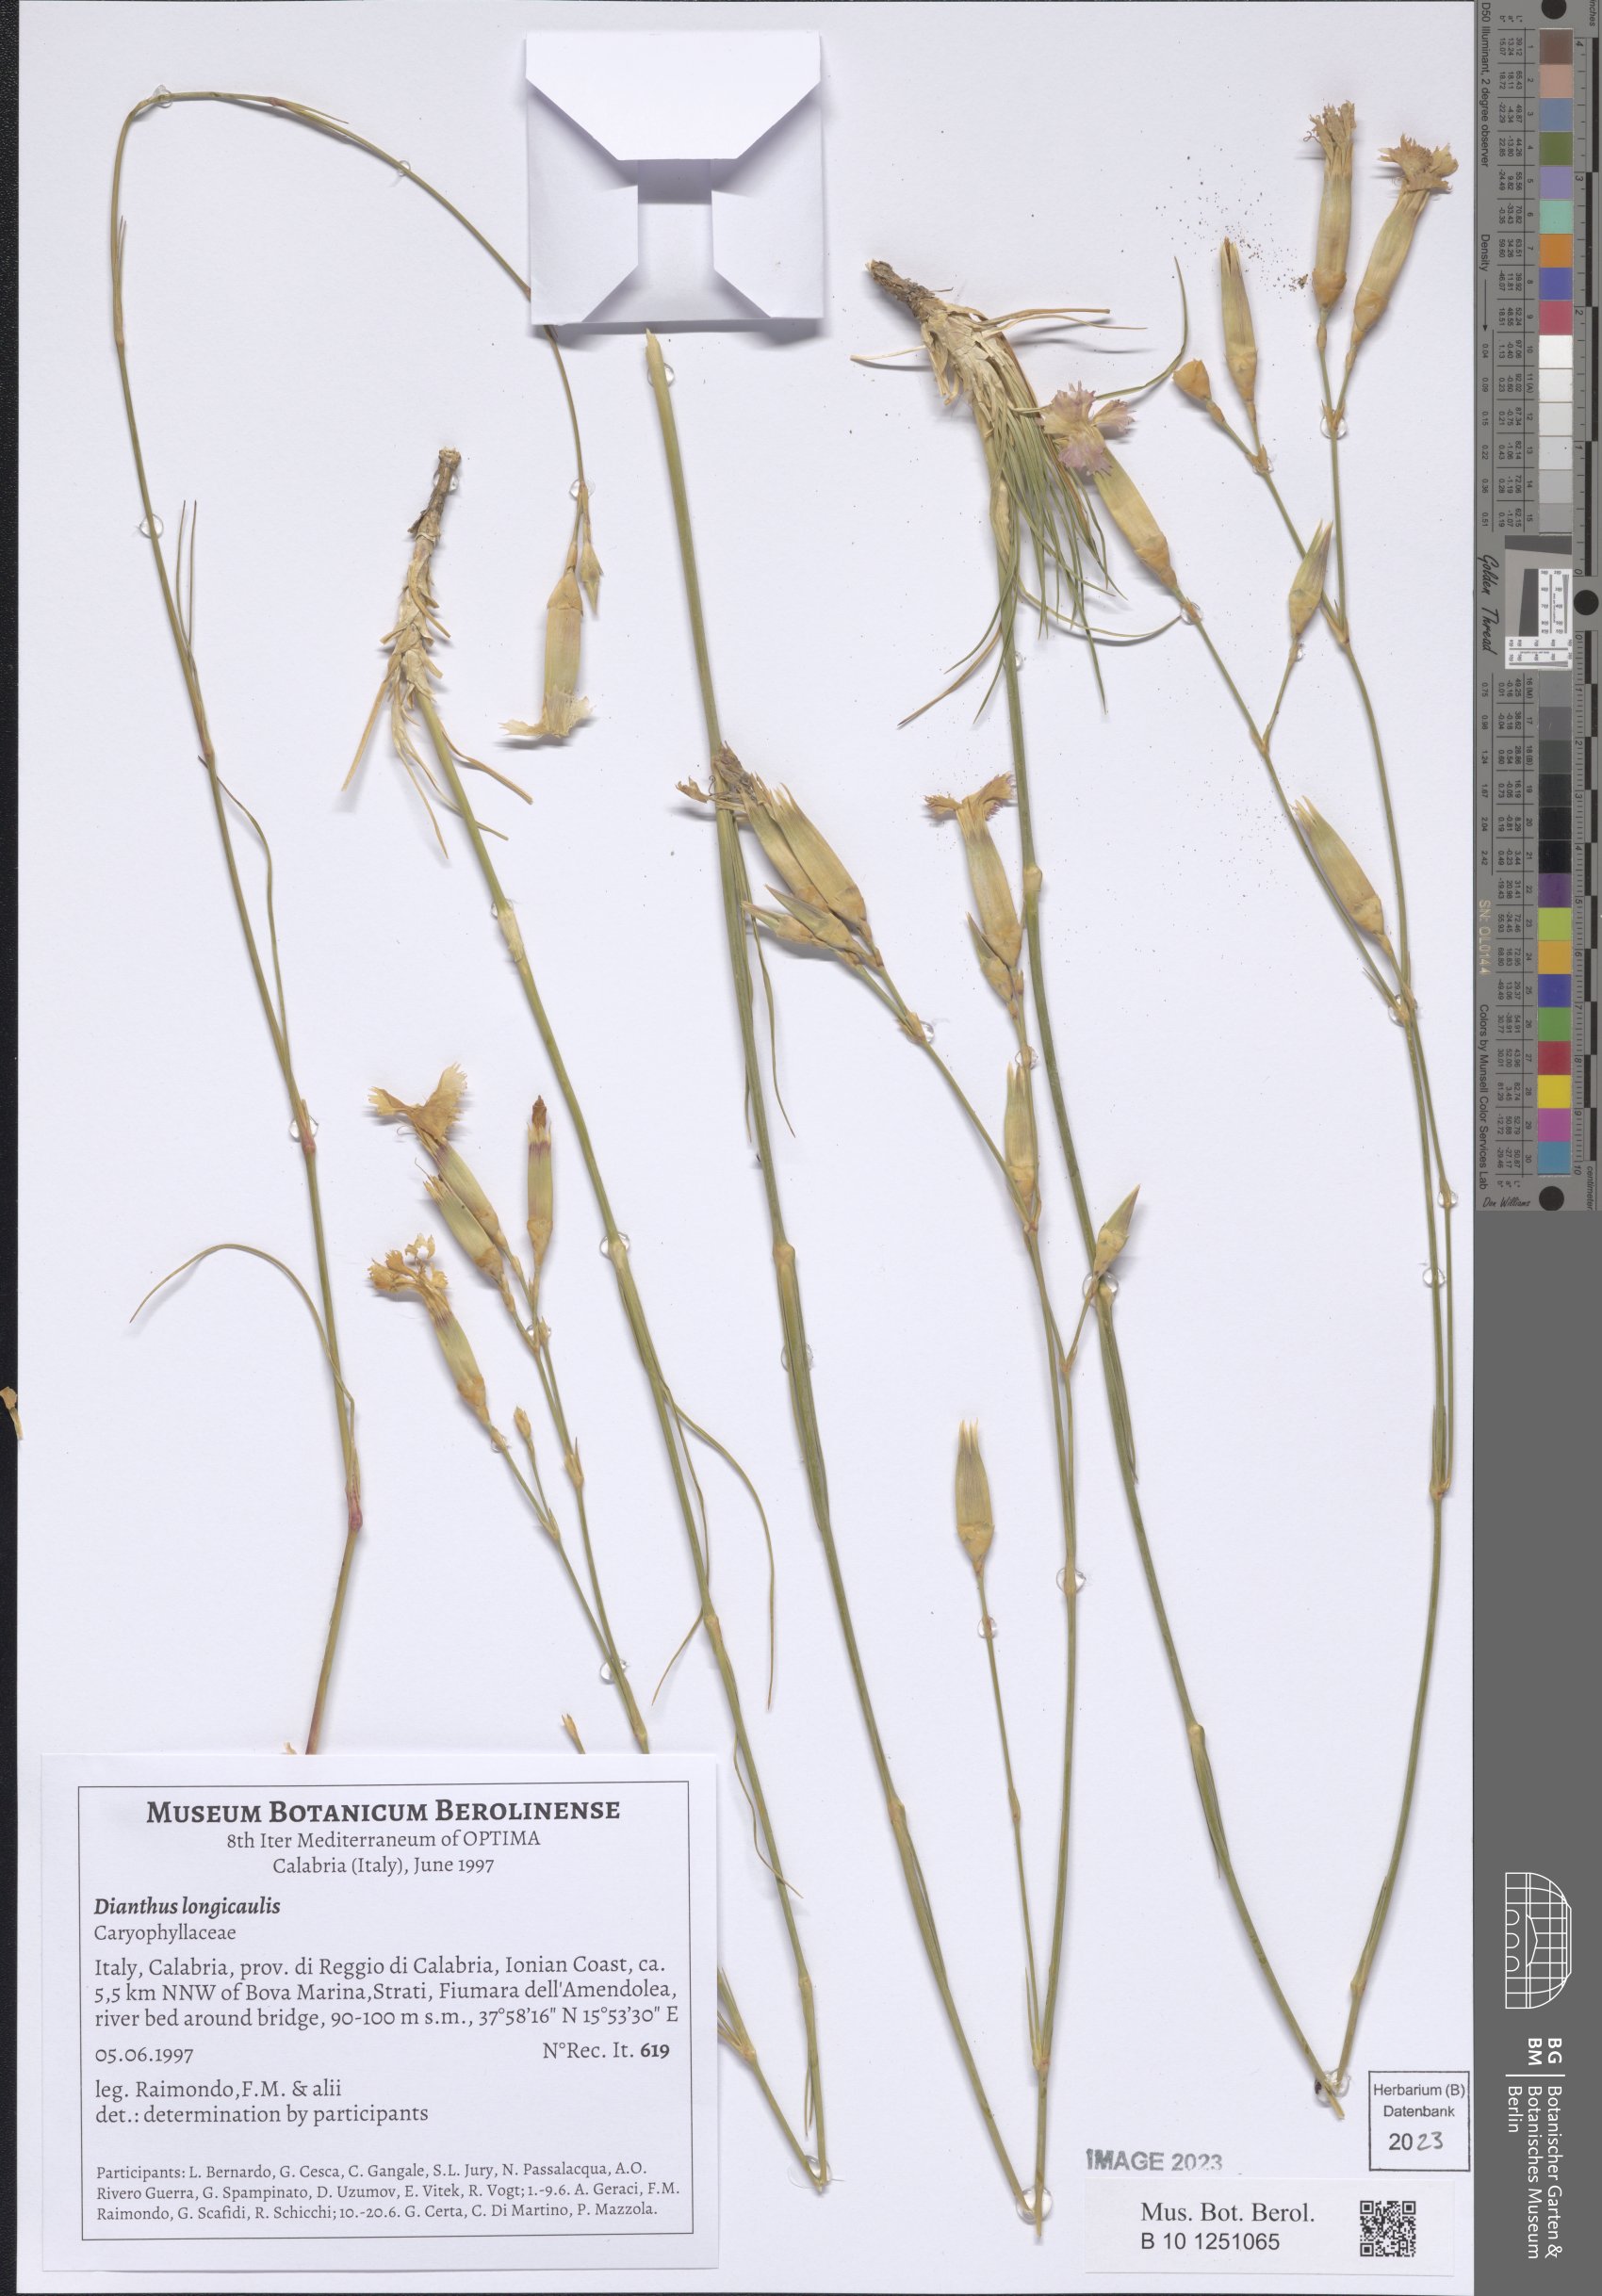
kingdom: Plantae
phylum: Tracheophyta
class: Magnoliopsida
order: Caryophyllales
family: Caryophyllaceae
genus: Dianthus
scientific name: Dianthus virgineus
